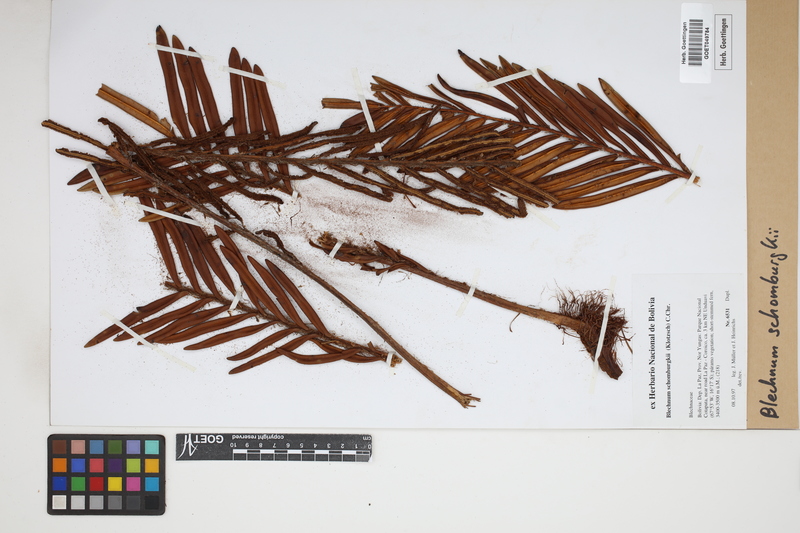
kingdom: Plantae
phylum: Tracheophyta
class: Polypodiopsida
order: Polypodiales
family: Blechnaceae
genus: Lomariocycas
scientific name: Lomariocycas schomburgkii
